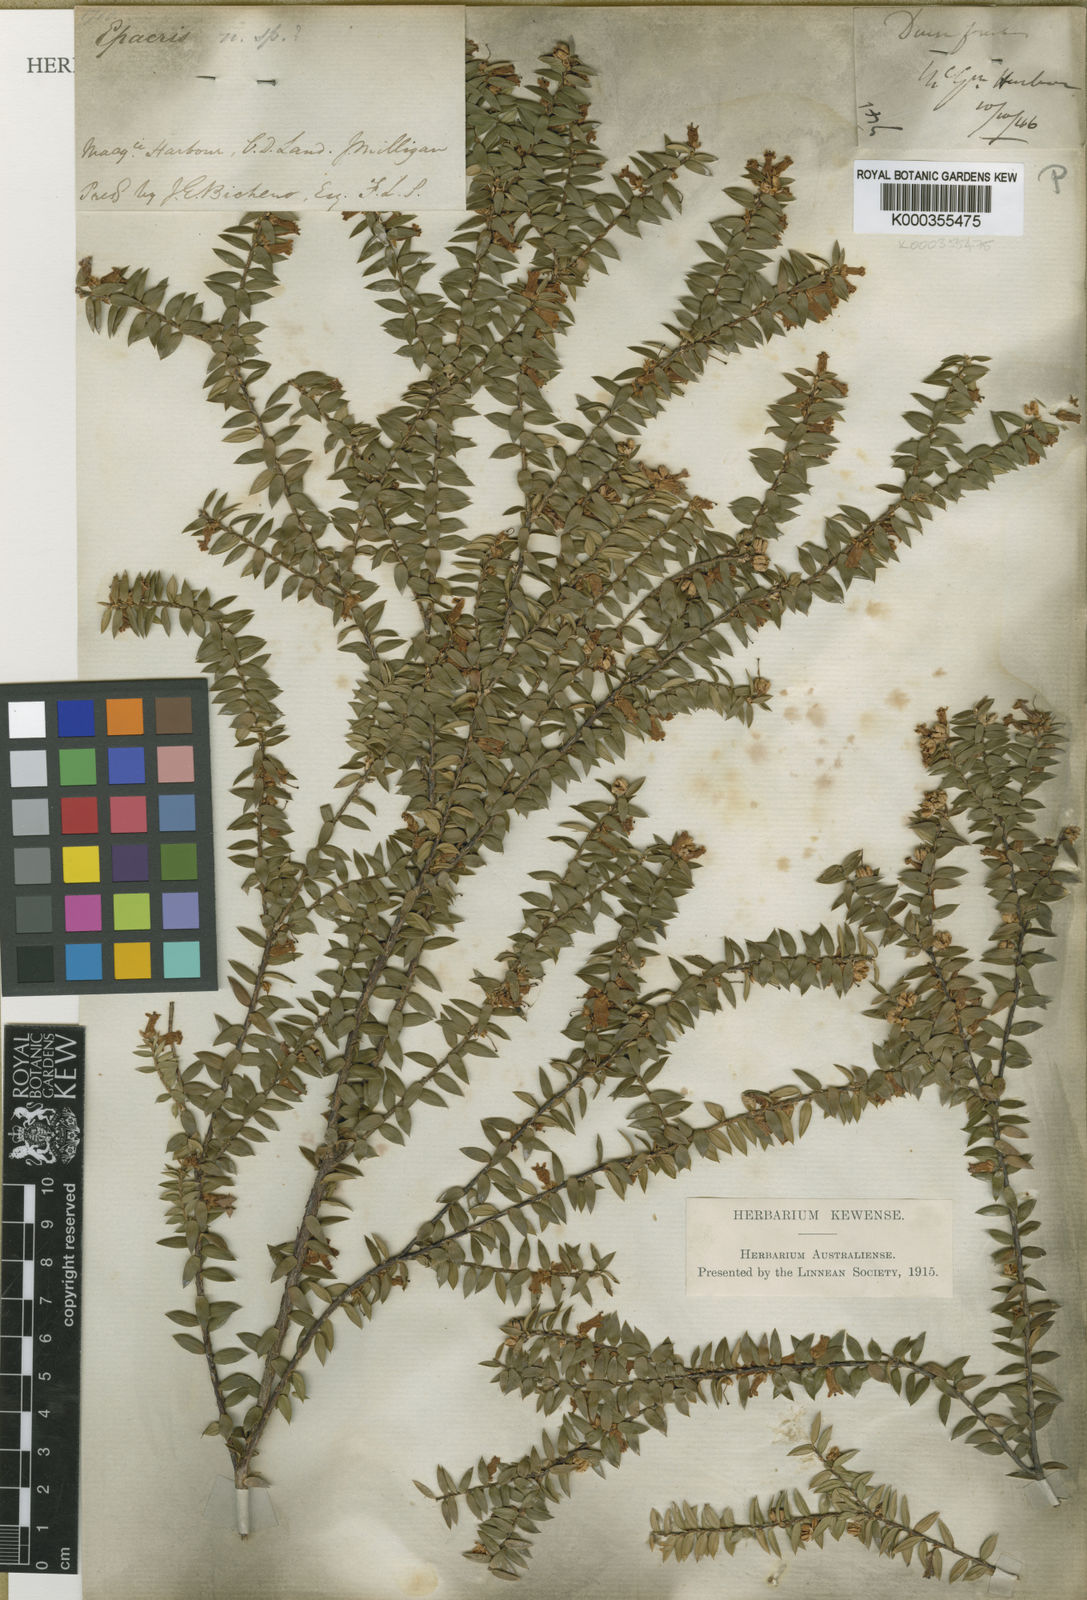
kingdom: Plantae
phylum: Tracheophyta
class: Magnoliopsida
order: Ericales
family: Ericaceae
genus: Epacris
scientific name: Epacris
